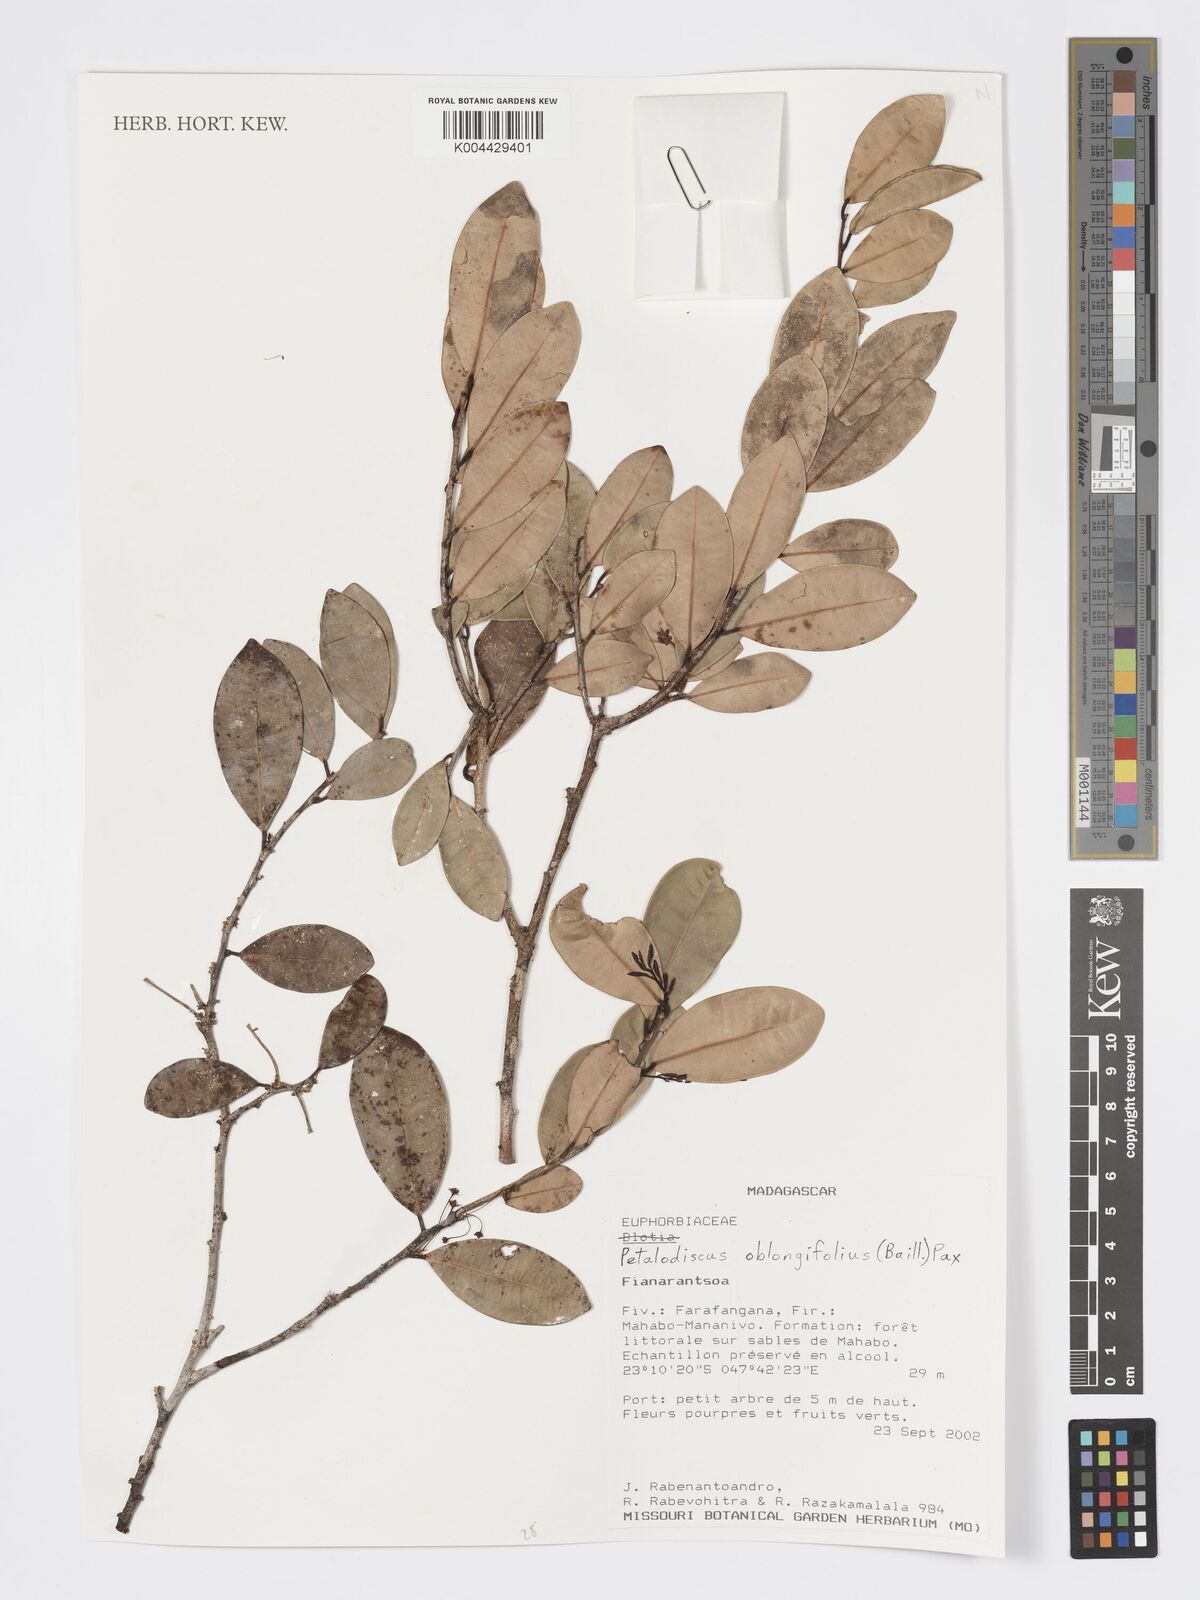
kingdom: Plantae
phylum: Tracheophyta
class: Magnoliopsida
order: Malpighiales
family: Phyllanthaceae
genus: Wielandia
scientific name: Wielandia oblongifolia
